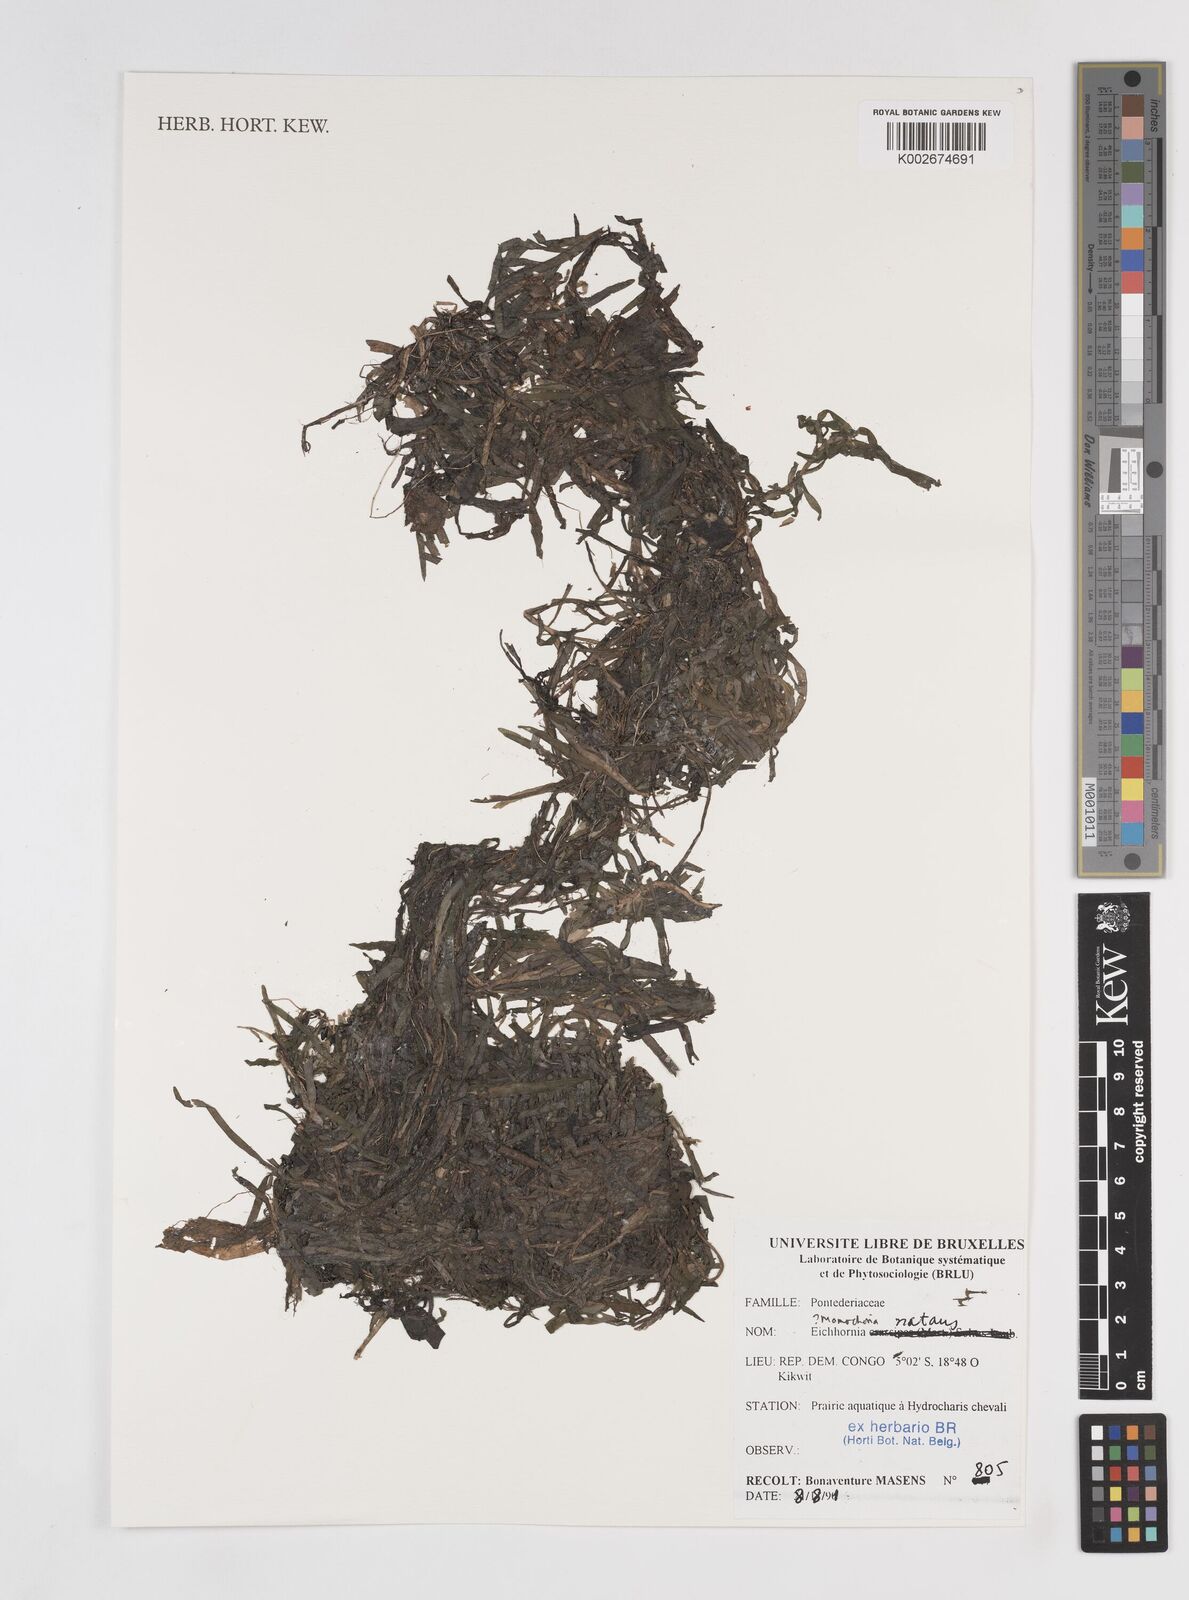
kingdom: Plantae
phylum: Tracheophyta
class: Liliopsida
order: Commelinales
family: Pontederiaceae
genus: Monochoria
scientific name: Monochoria
